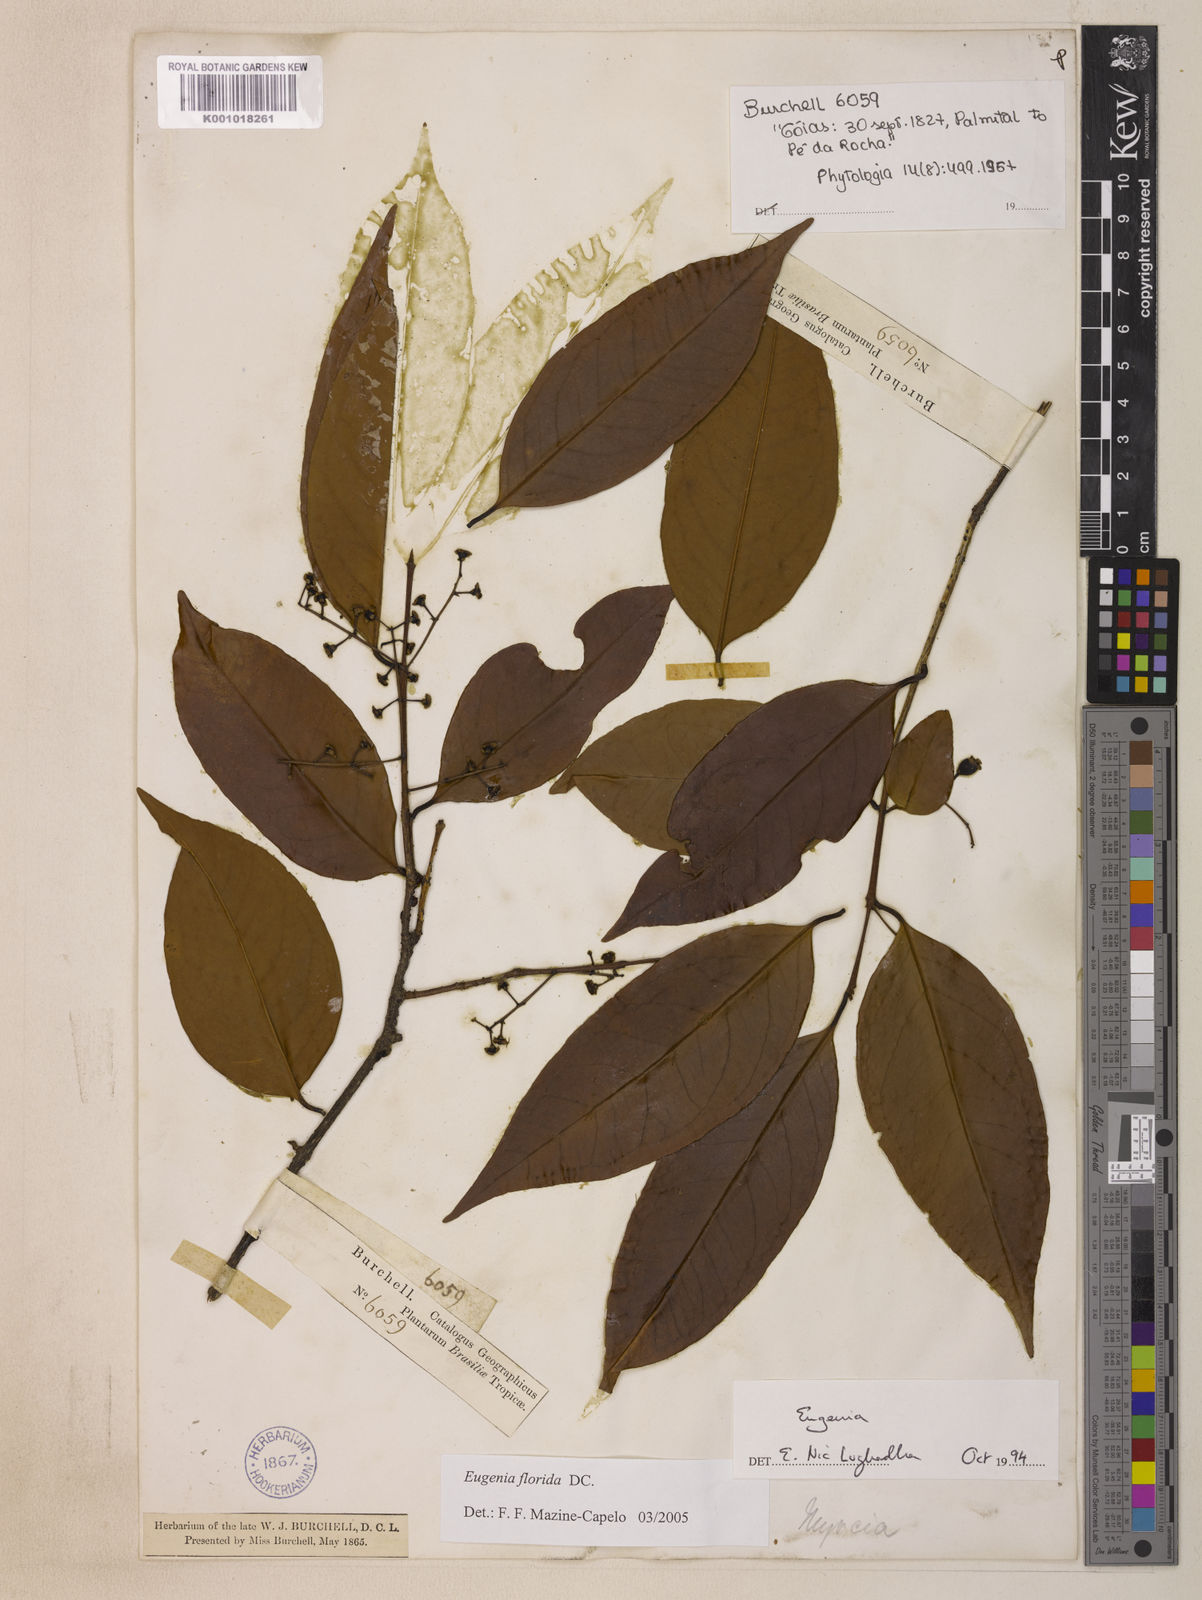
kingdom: Plantae
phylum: Tracheophyta
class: Magnoliopsida
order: Myrtales
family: Myrtaceae
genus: Eugenia
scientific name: Eugenia florida
